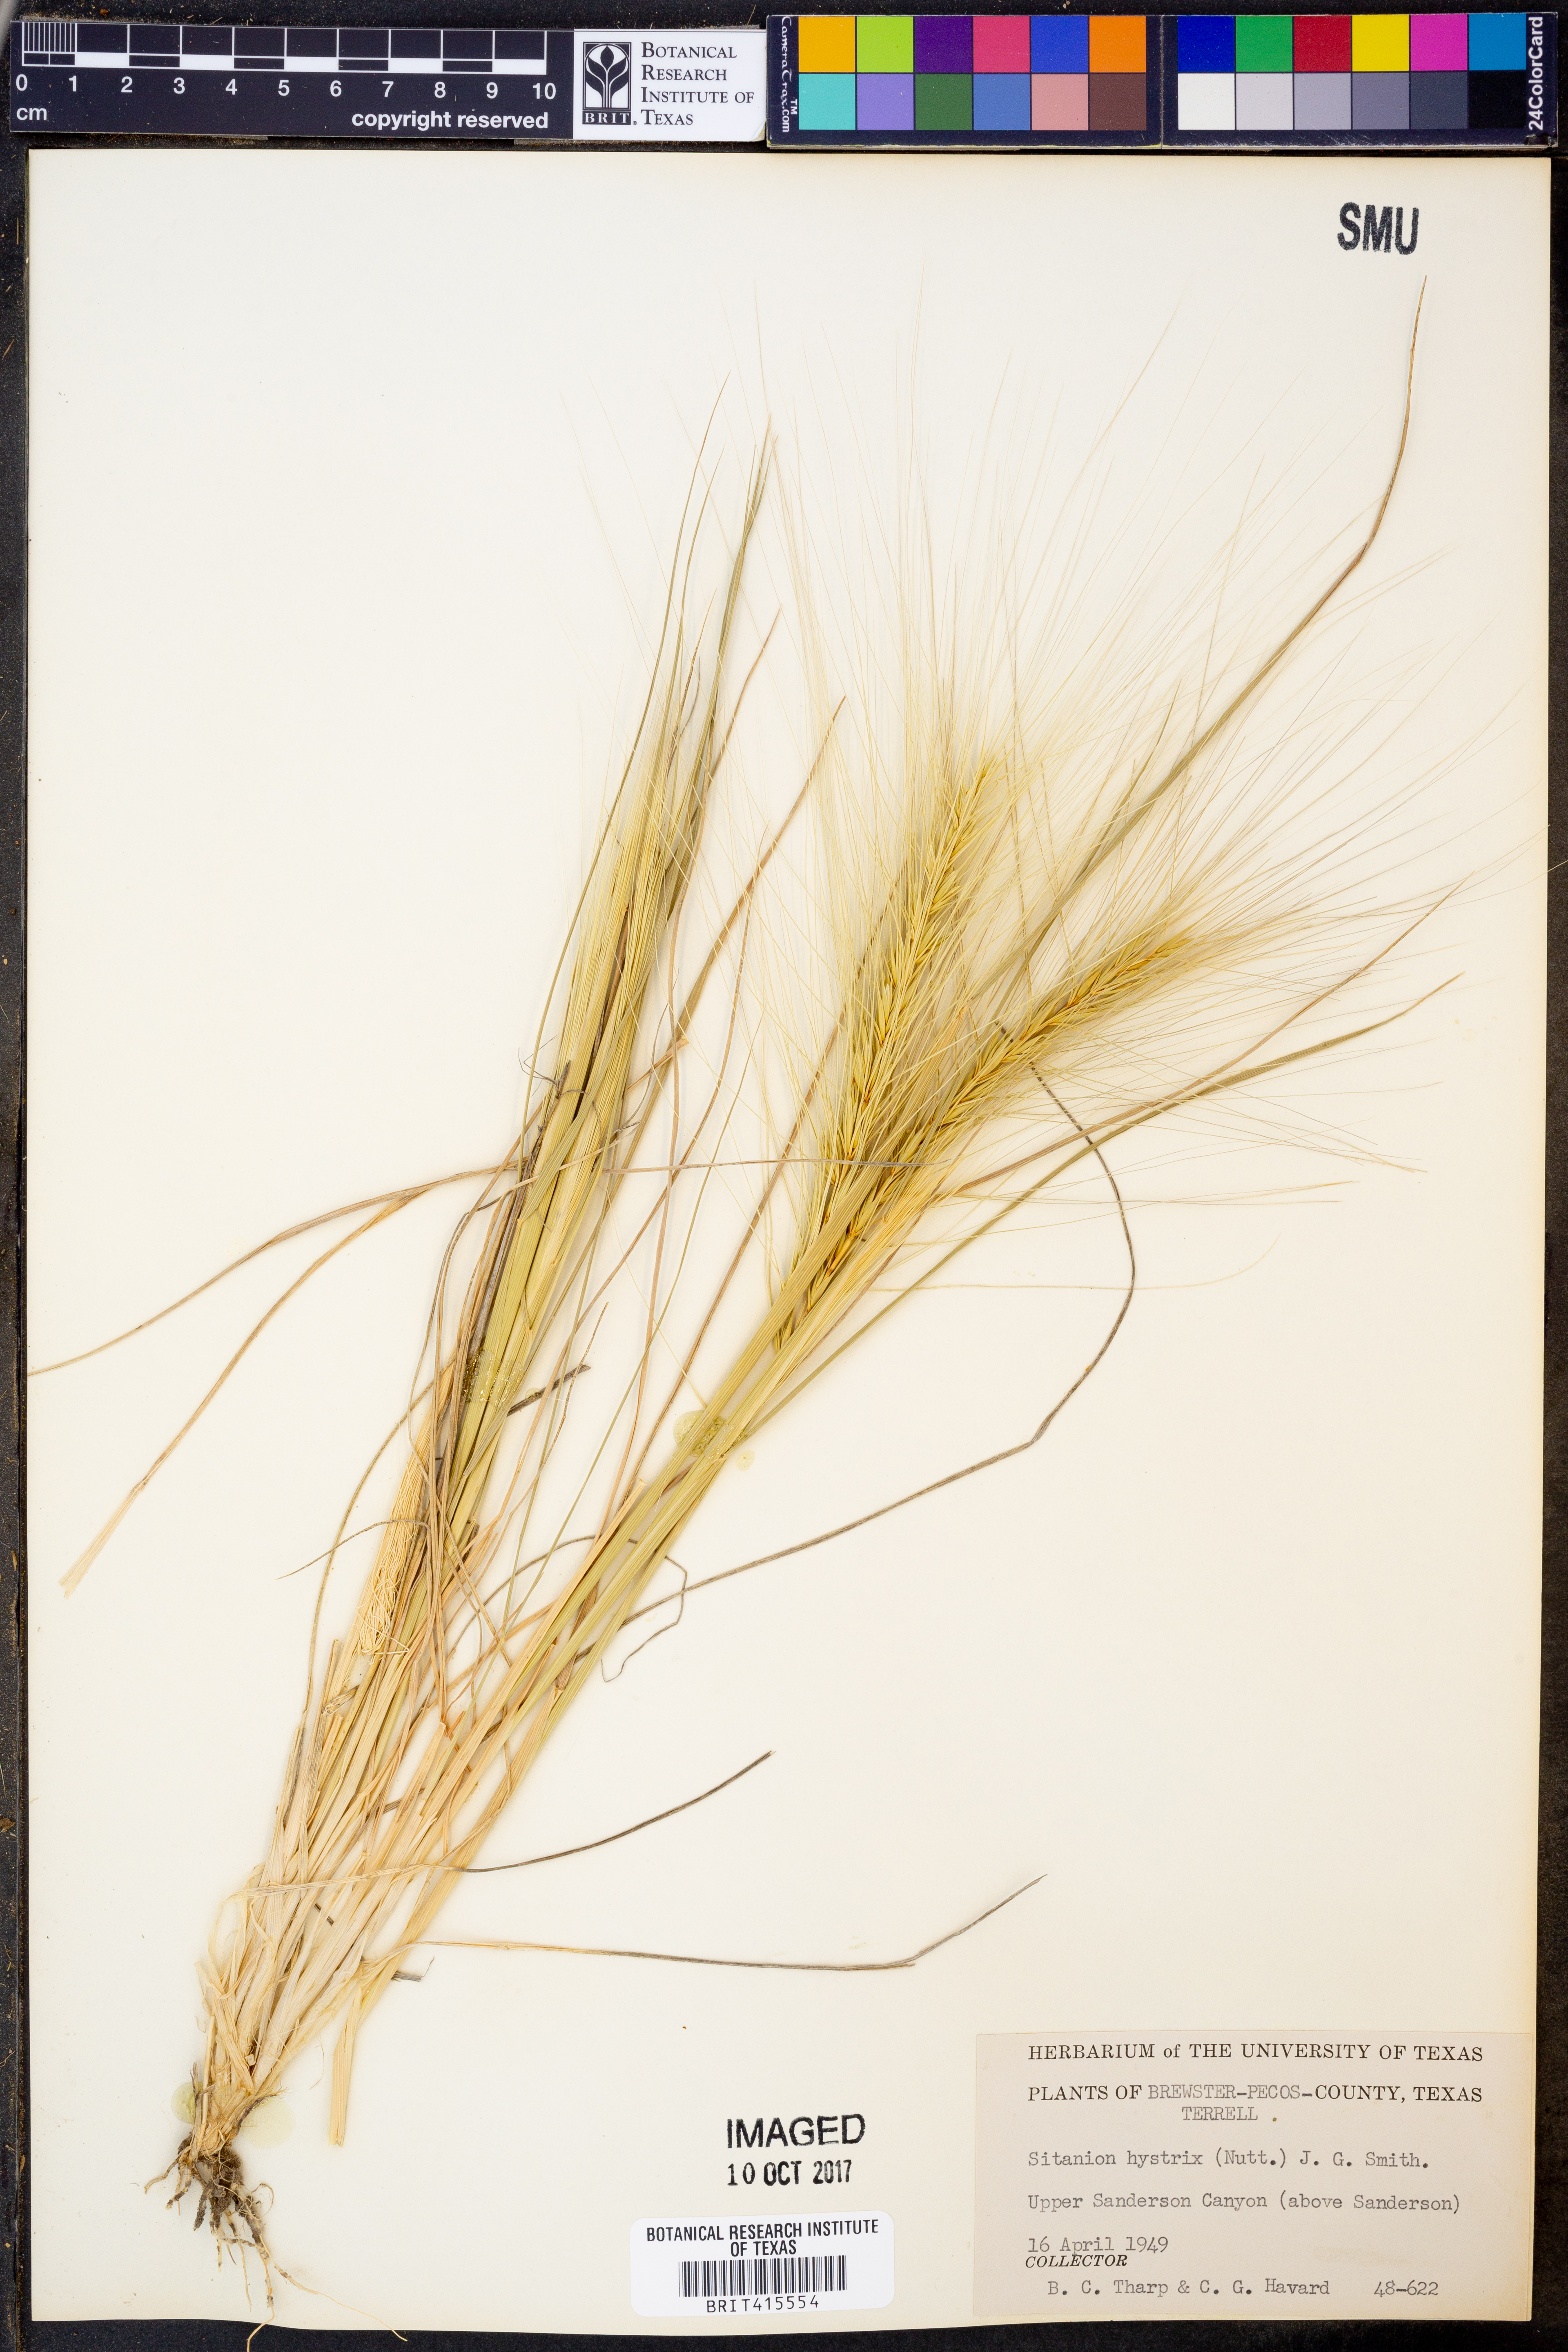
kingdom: Plantae
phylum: Tracheophyta
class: Liliopsida
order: Poales
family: Poaceae
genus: Elymus
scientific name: Elymus elymoides
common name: Bottlebrush squirreltail
